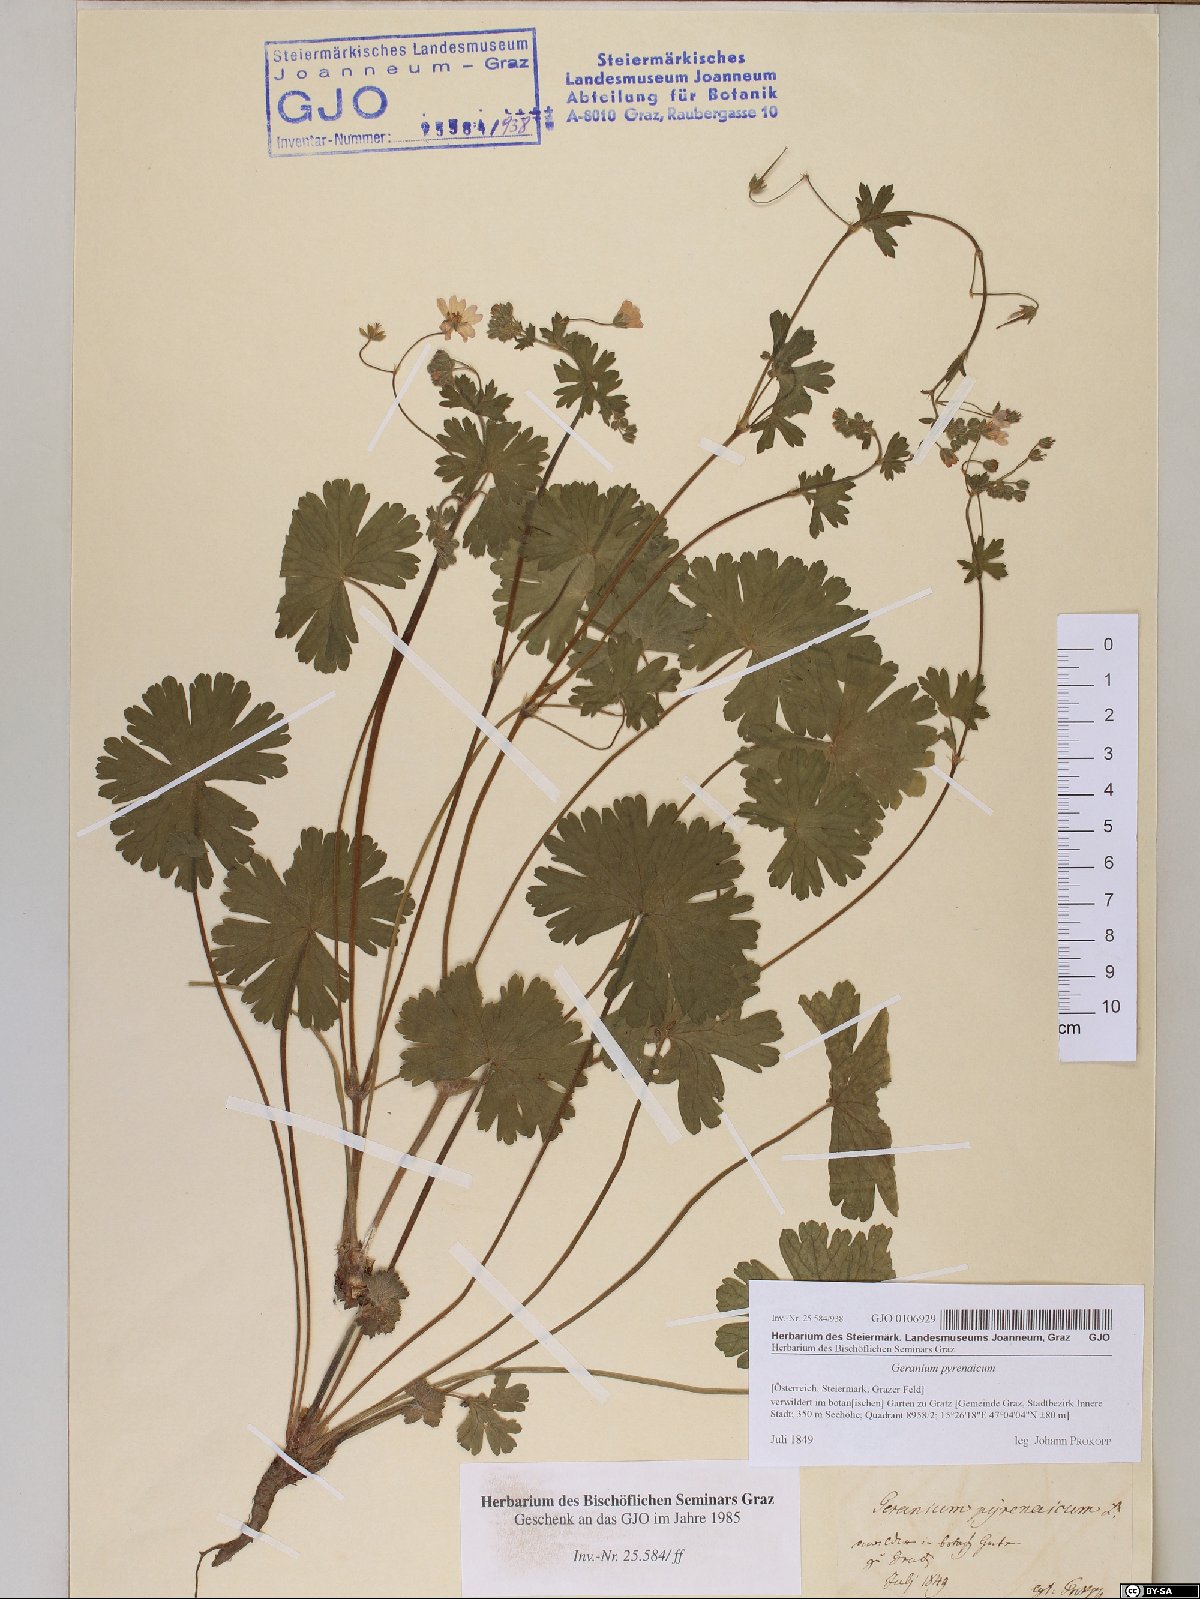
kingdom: Plantae
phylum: Tracheophyta
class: Magnoliopsida
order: Geraniales
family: Geraniaceae
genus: Geranium
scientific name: Geranium pyrenaicum
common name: Hedgerow crane's-bill
